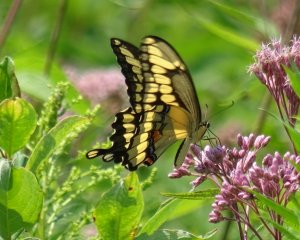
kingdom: Animalia
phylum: Arthropoda
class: Insecta
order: Lepidoptera
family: Papilionidae
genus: Papilio
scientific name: Papilio cresphontes
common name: Eastern Giant Swallowtail
